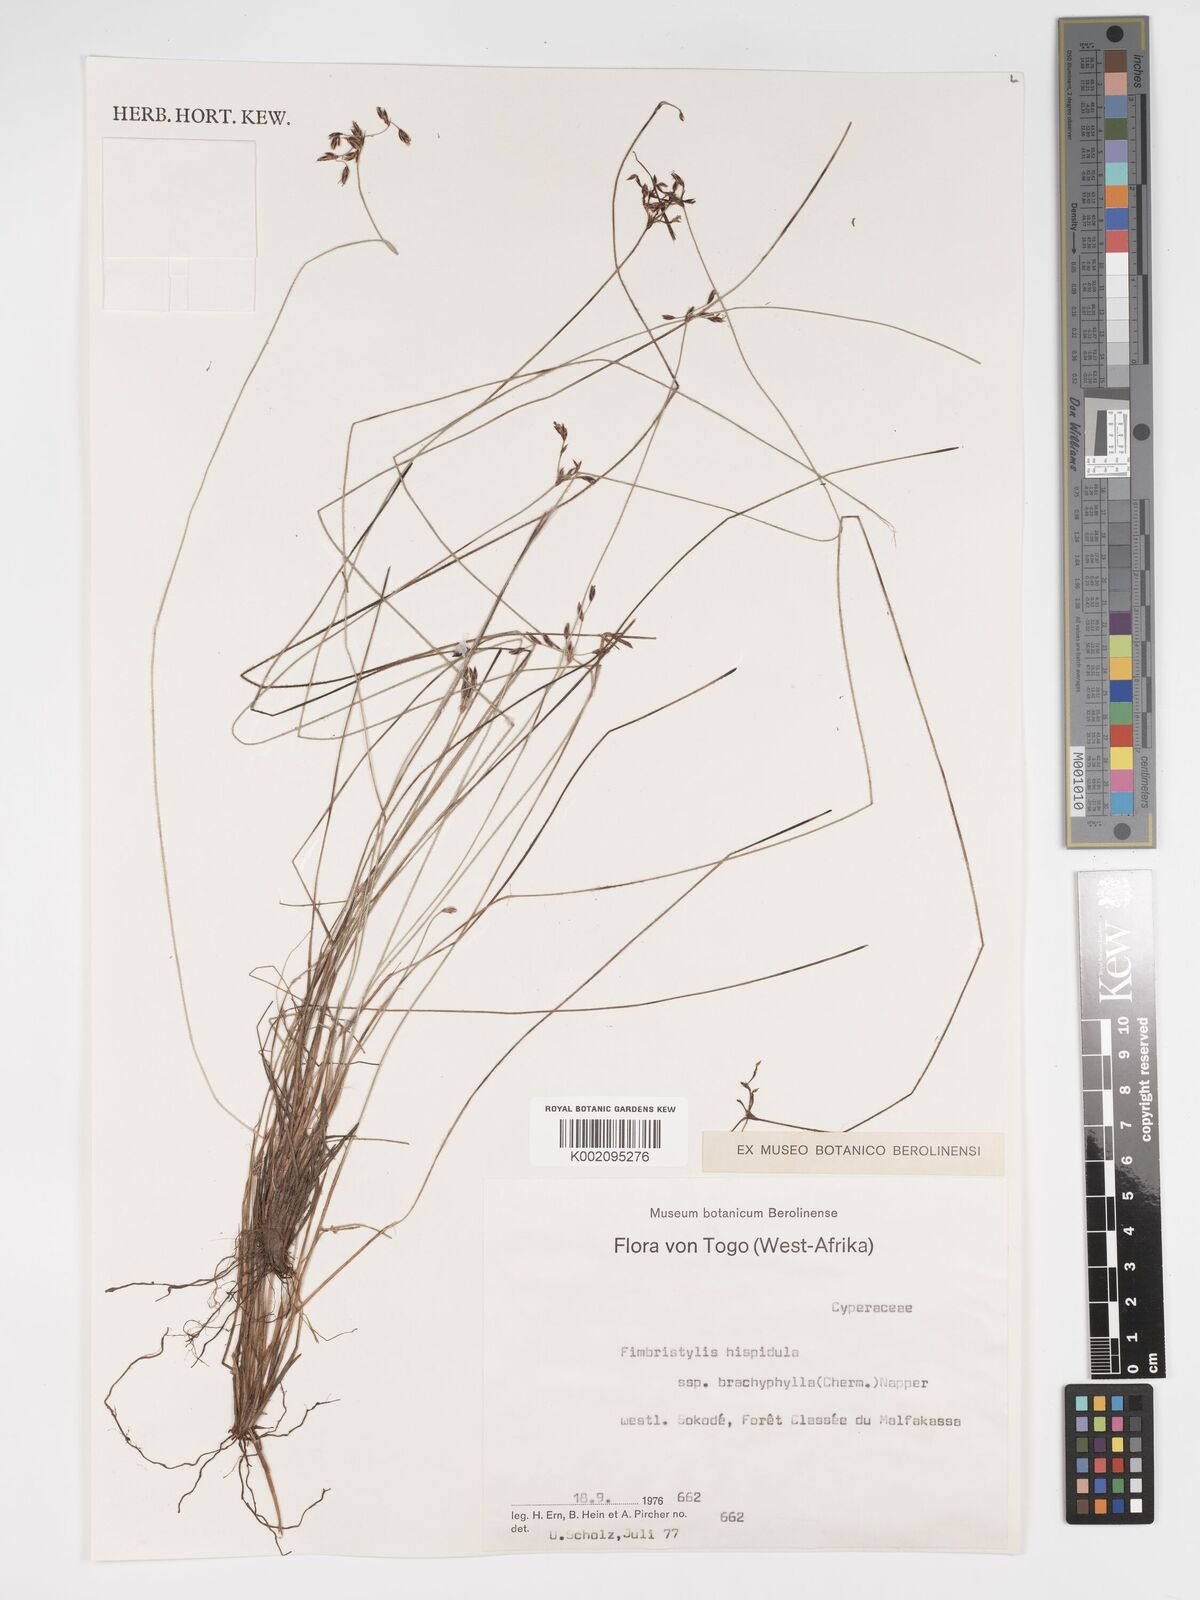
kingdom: Plantae
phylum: Tracheophyta
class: Liliopsida
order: Poales
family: Cyperaceae
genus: Bulbostylis
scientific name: Bulbostylis hispidula
